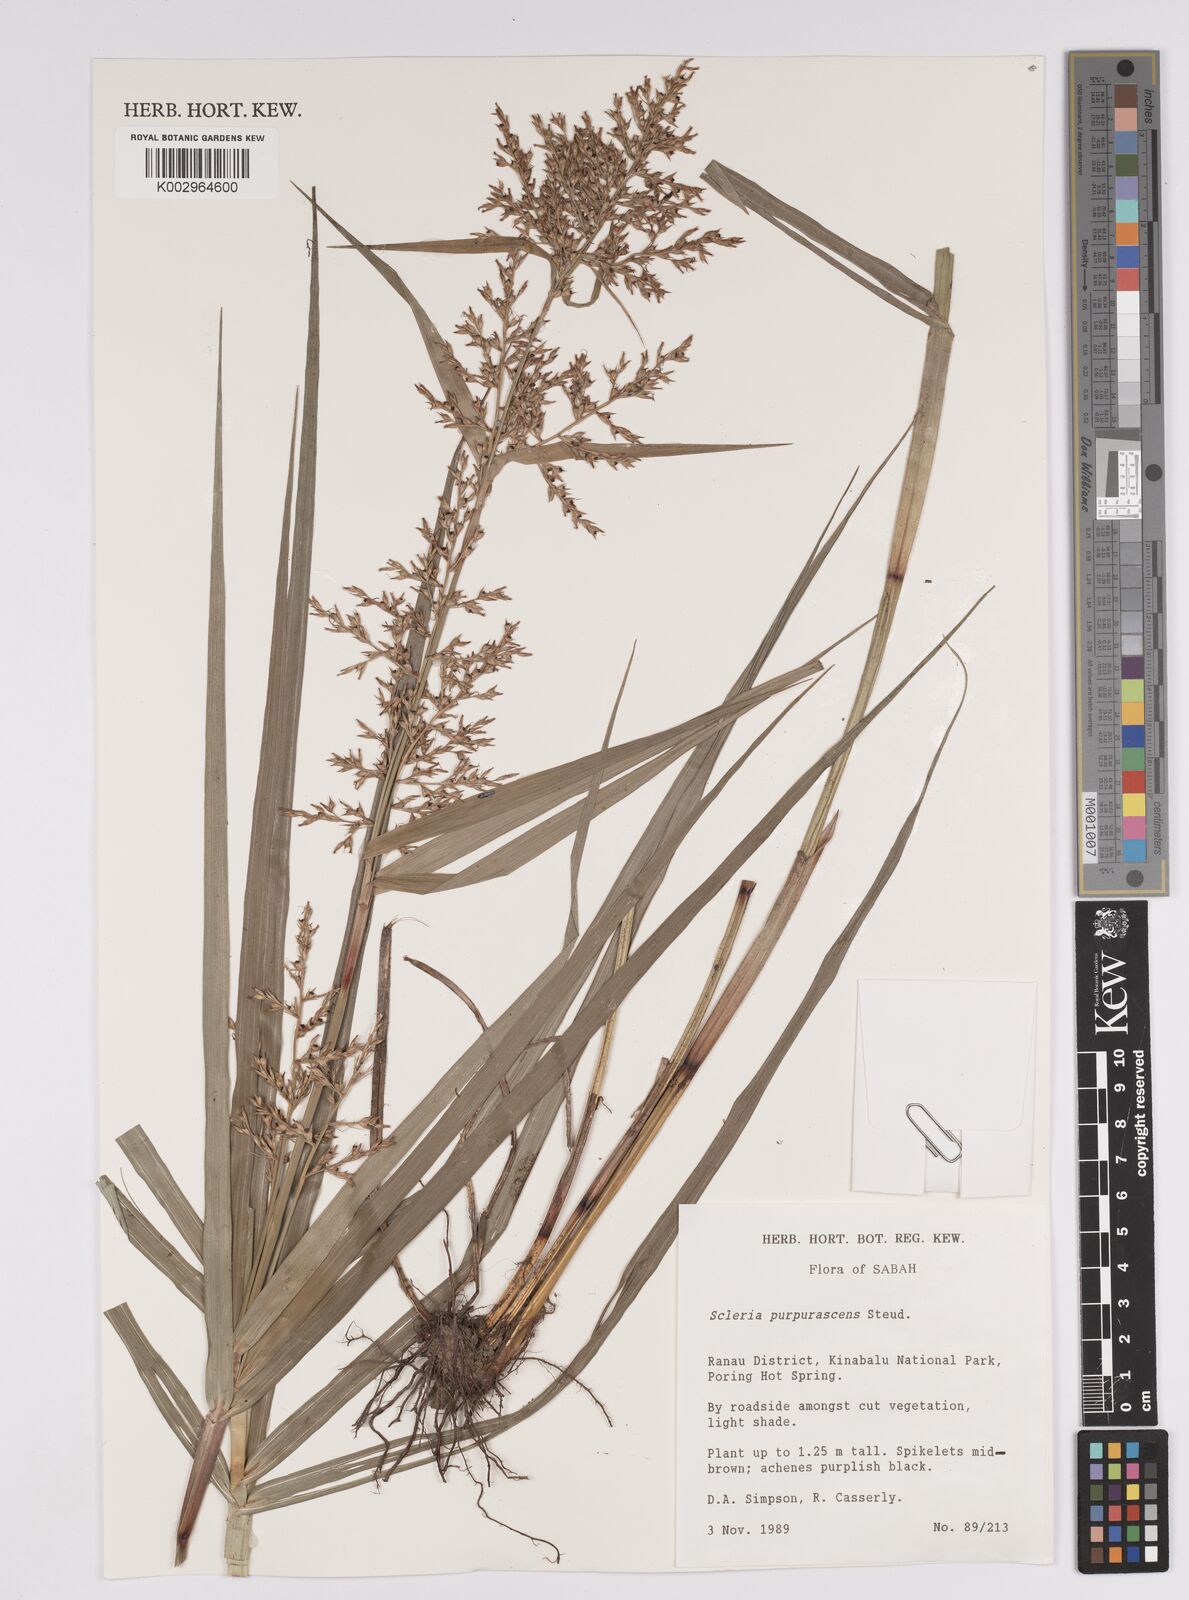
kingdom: Plantae
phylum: Tracheophyta
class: Liliopsida
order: Poales
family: Cyperaceae
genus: Scleria
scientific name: Scleria purpurascens
